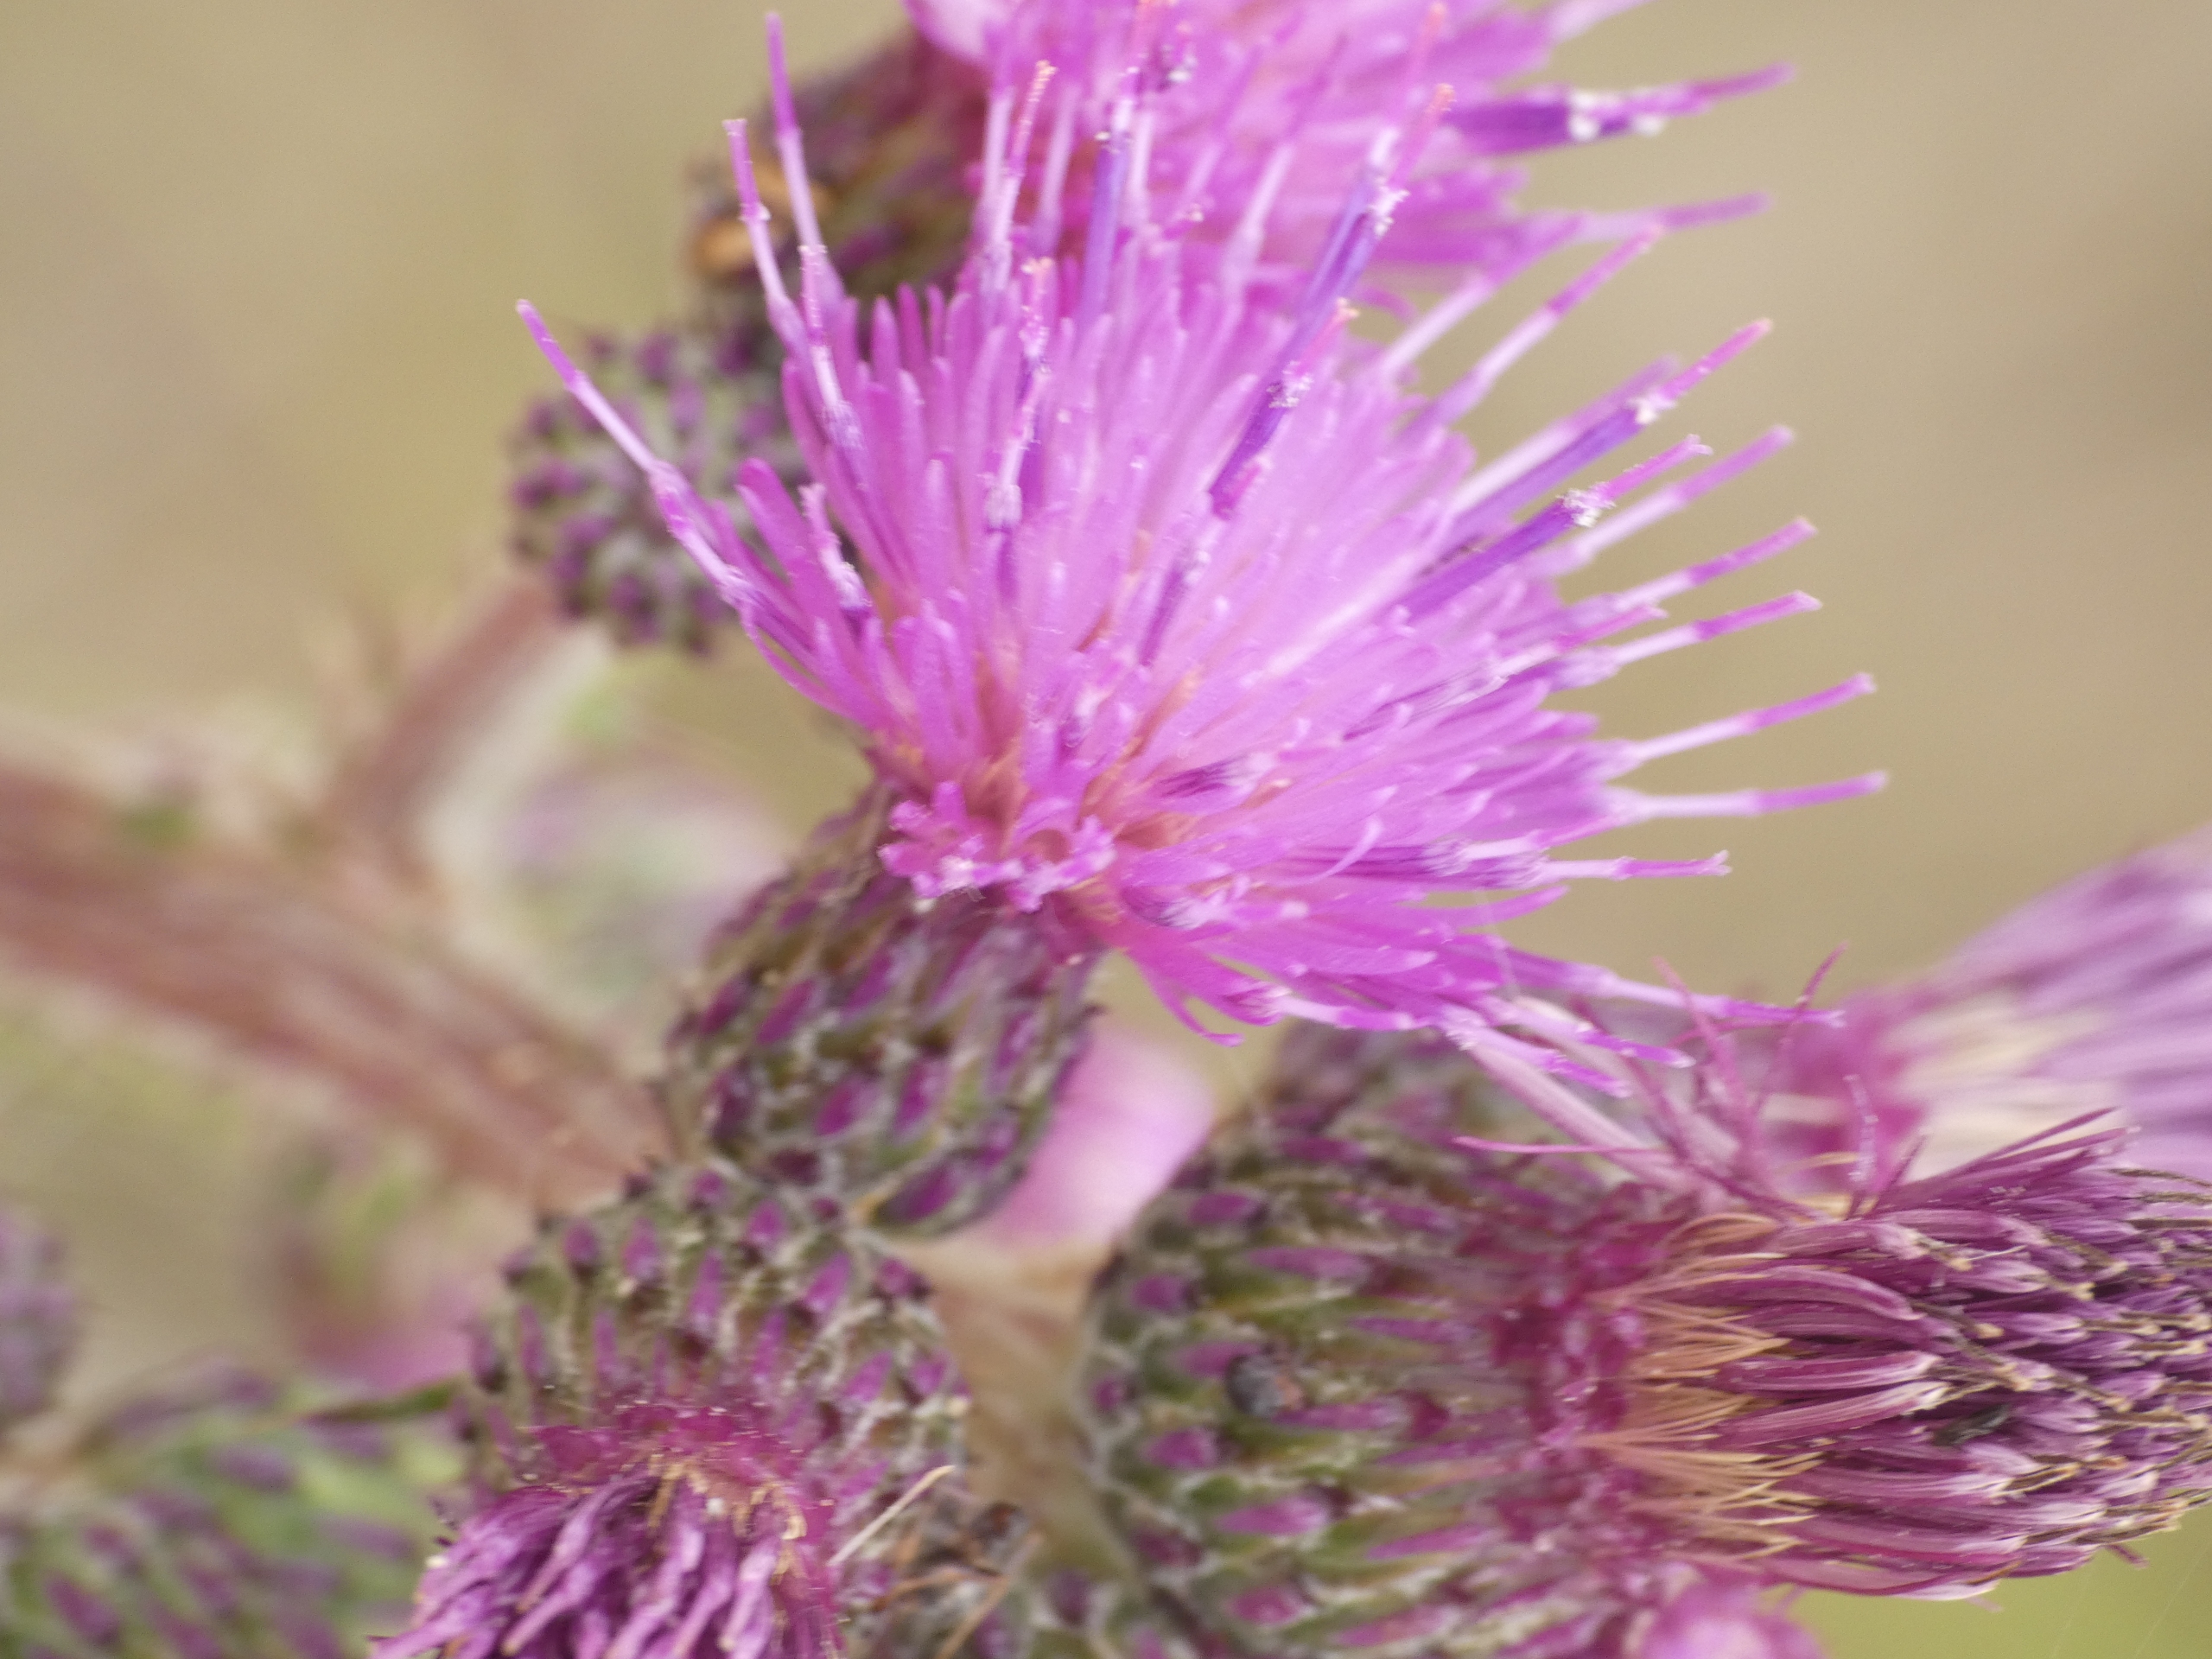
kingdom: Plantae
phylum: Tracheophyta
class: Magnoliopsida
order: Asterales
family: Asteraceae
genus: Cirsium
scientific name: Cirsium palustre
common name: Kær-tidsel
